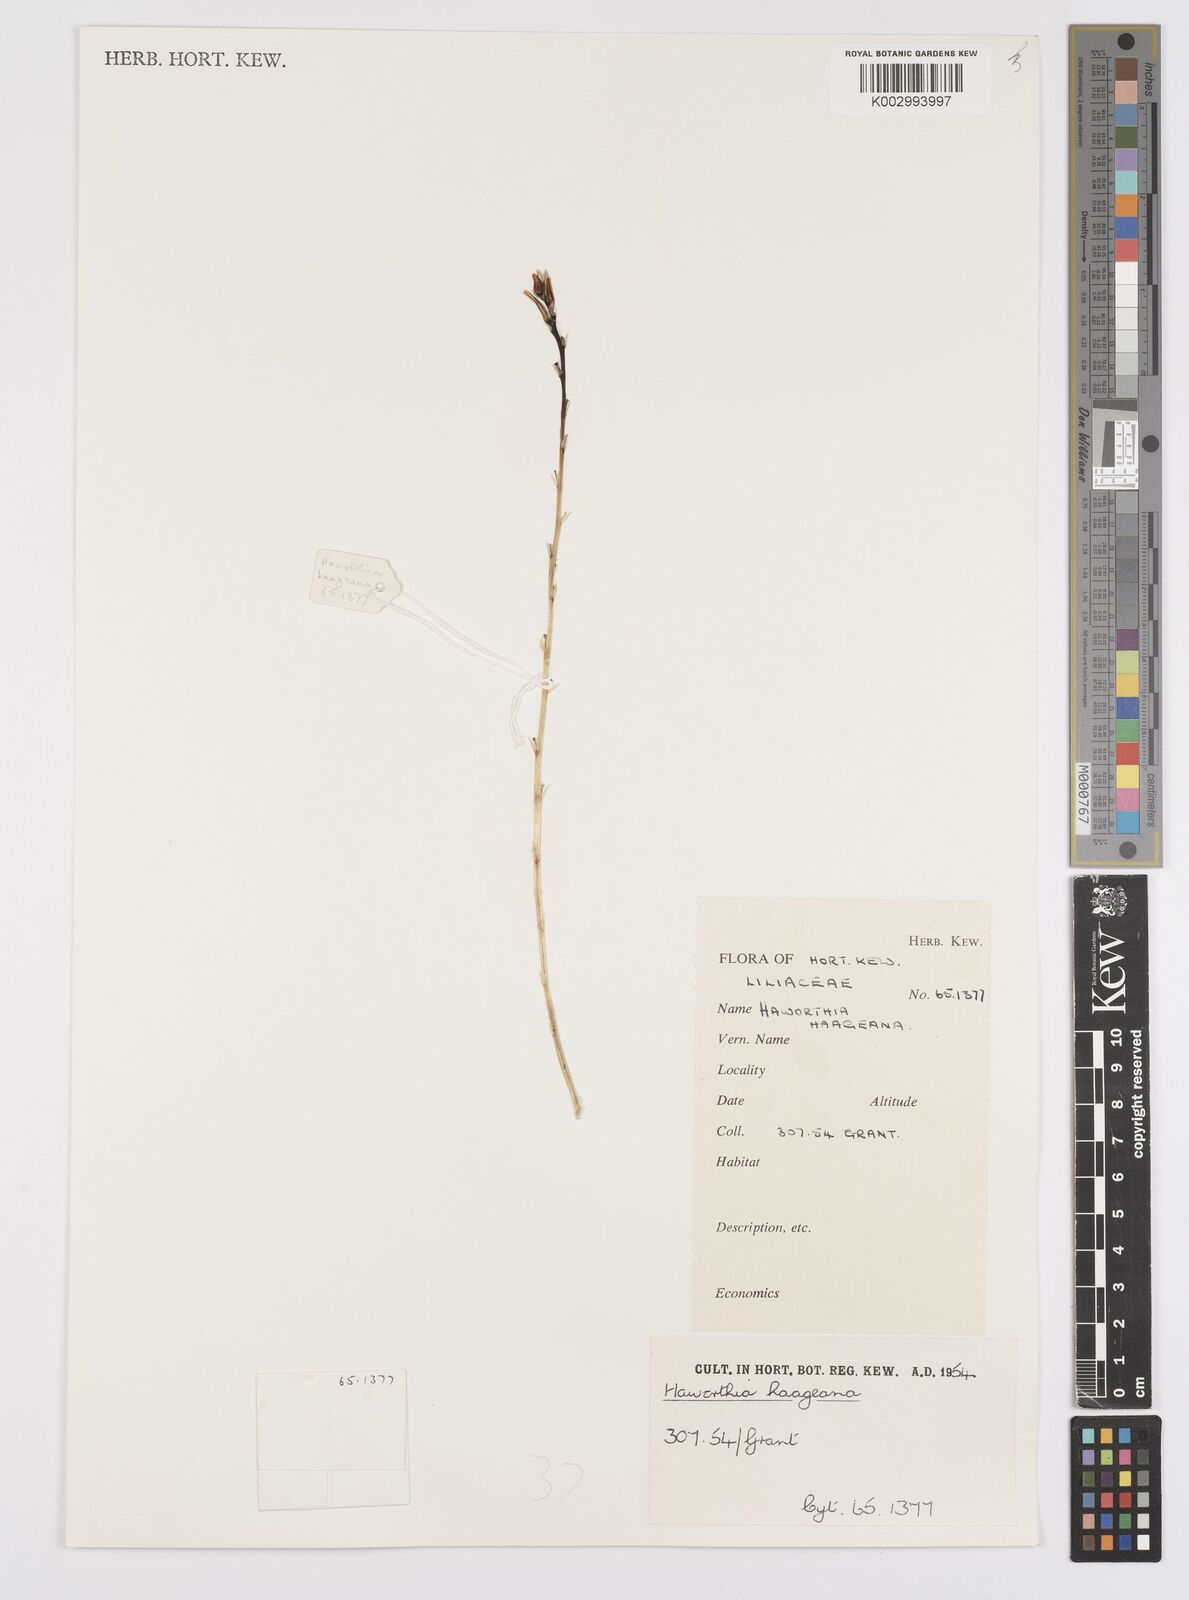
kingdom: Plantae
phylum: Tracheophyta
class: Liliopsida
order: Asparagales
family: Asphodelaceae
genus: Haworthia
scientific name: Haworthia reticulata
